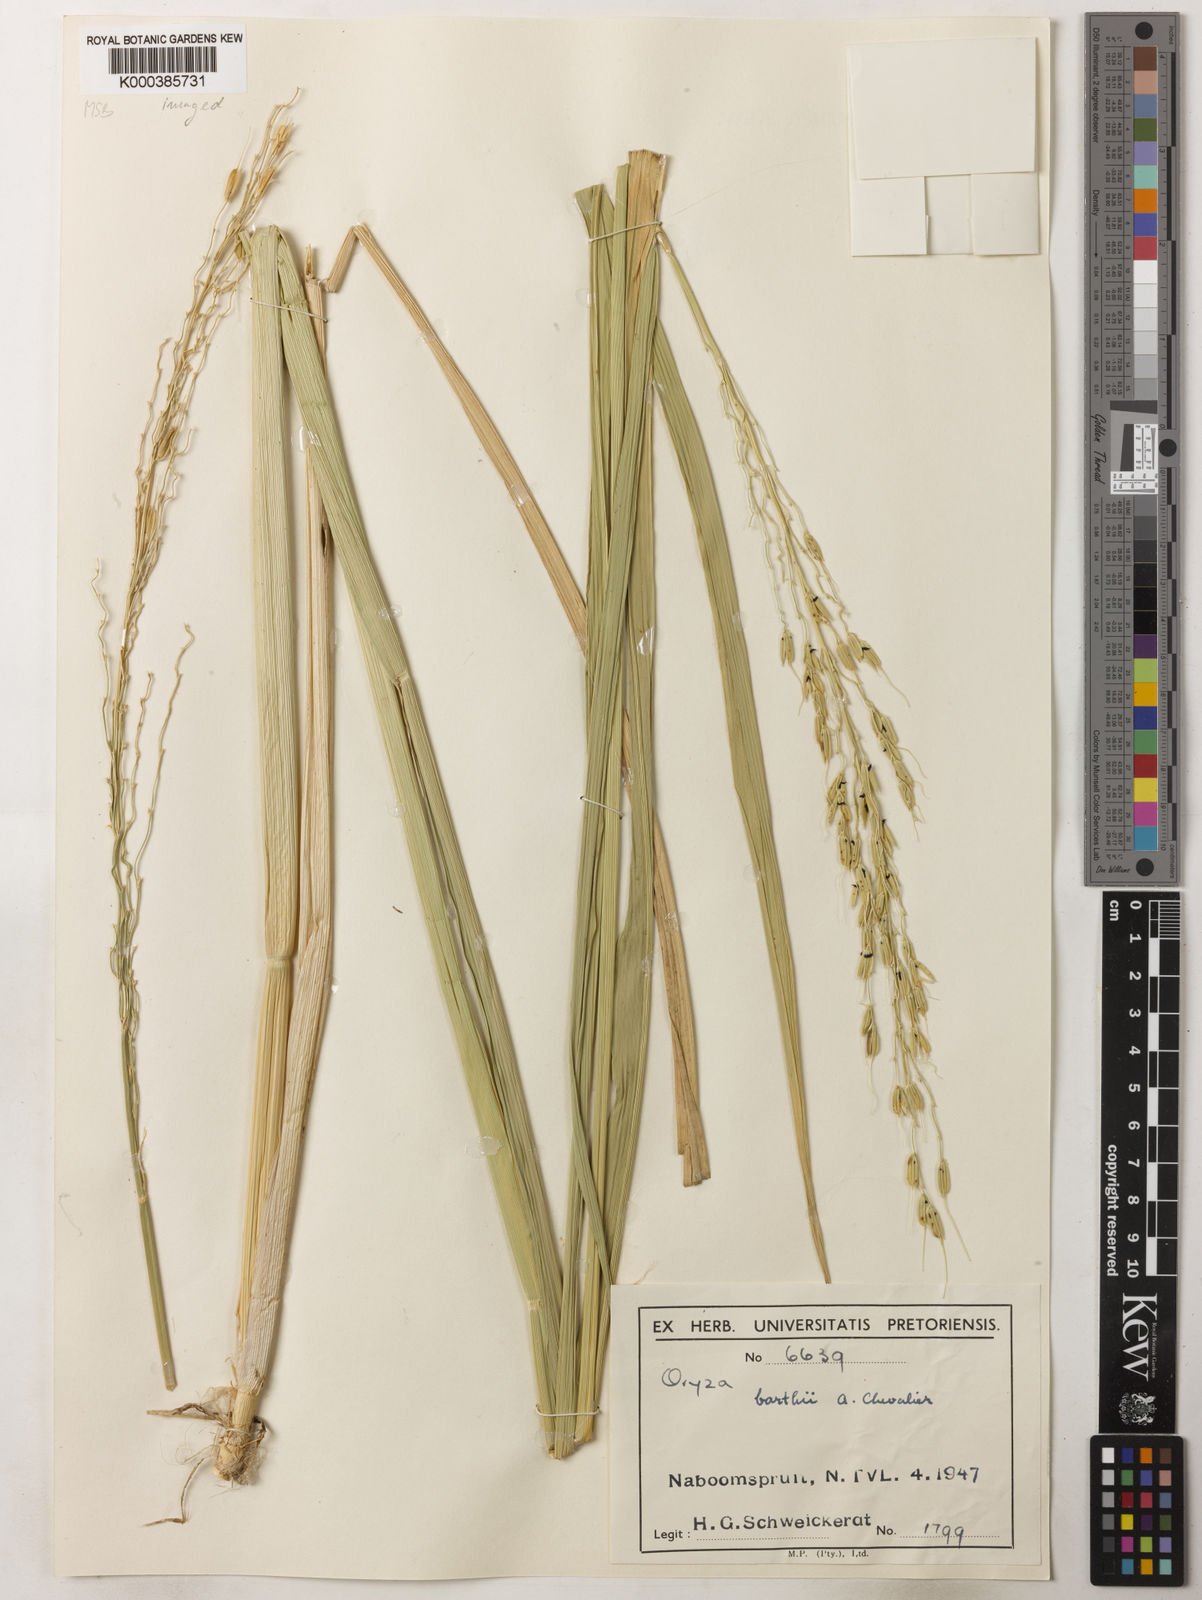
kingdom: Plantae
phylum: Tracheophyta
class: Liliopsida
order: Poales
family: Poaceae
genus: Oryza
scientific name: Oryza longistaminata
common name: Red rice
